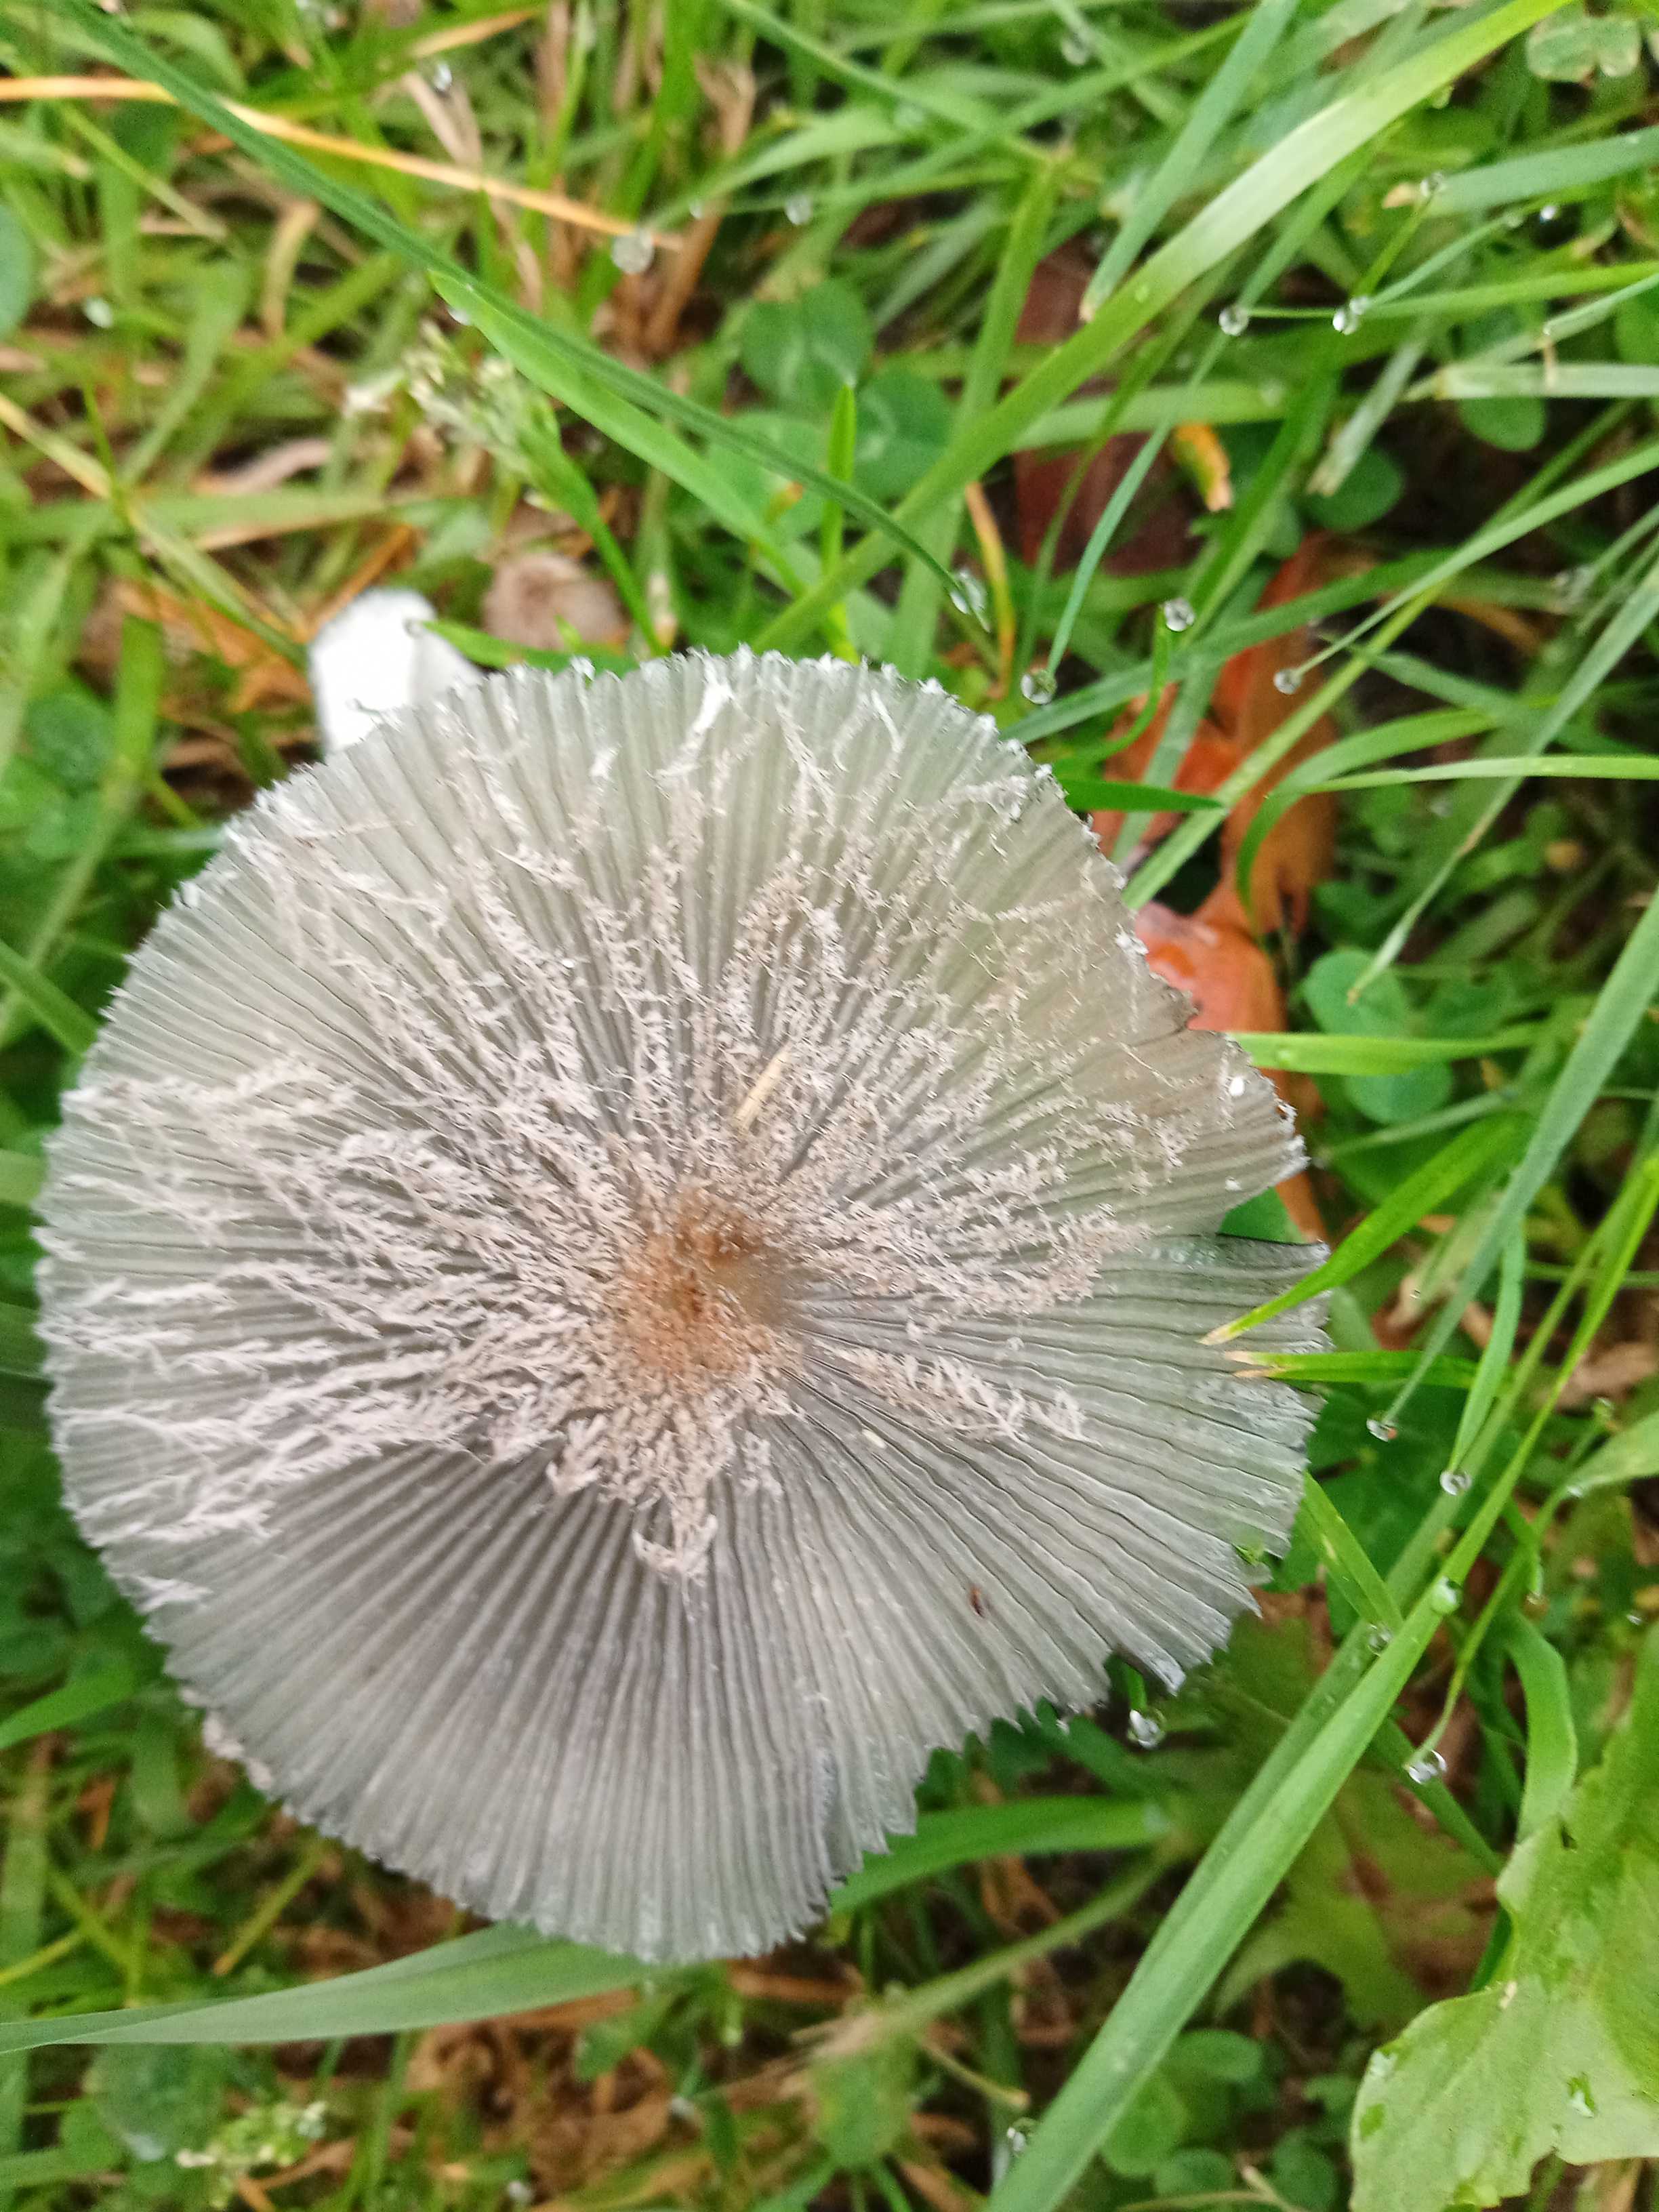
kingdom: Fungi
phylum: Basidiomycota
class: Agaricomycetes
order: Agaricales
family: Psathyrellaceae
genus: Coprinopsis
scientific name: Coprinopsis lagopus
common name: dunstokket blækhat
